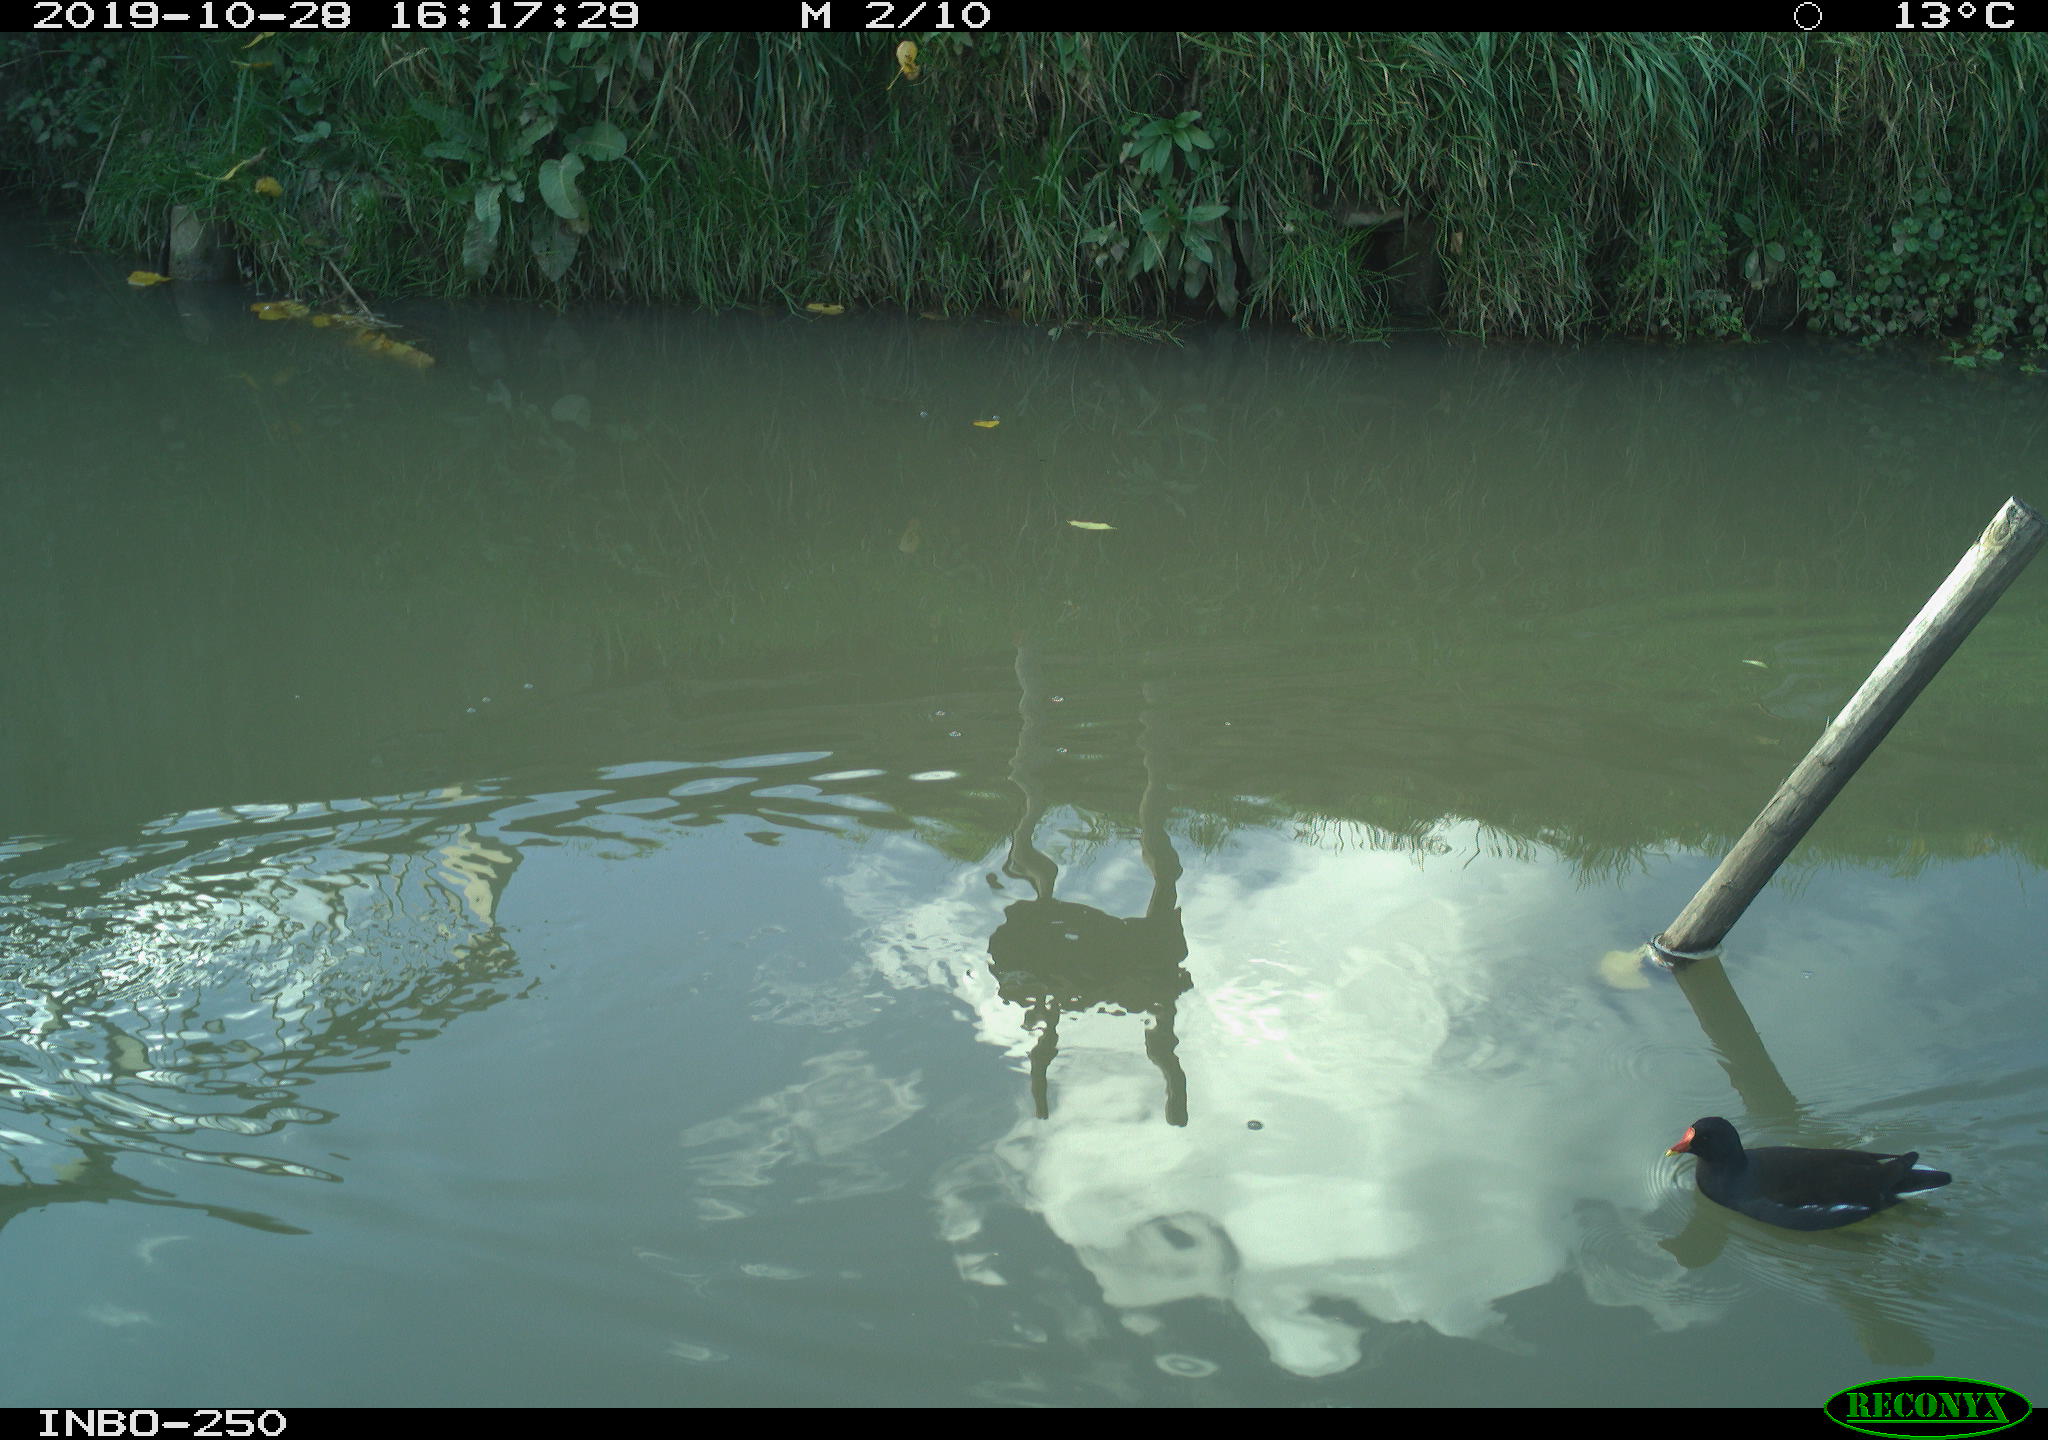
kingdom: Animalia
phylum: Chordata
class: Aves
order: Gruiformes
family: Rallidae
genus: Gallinula
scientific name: Gallinula chloropus
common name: Common moorhen
